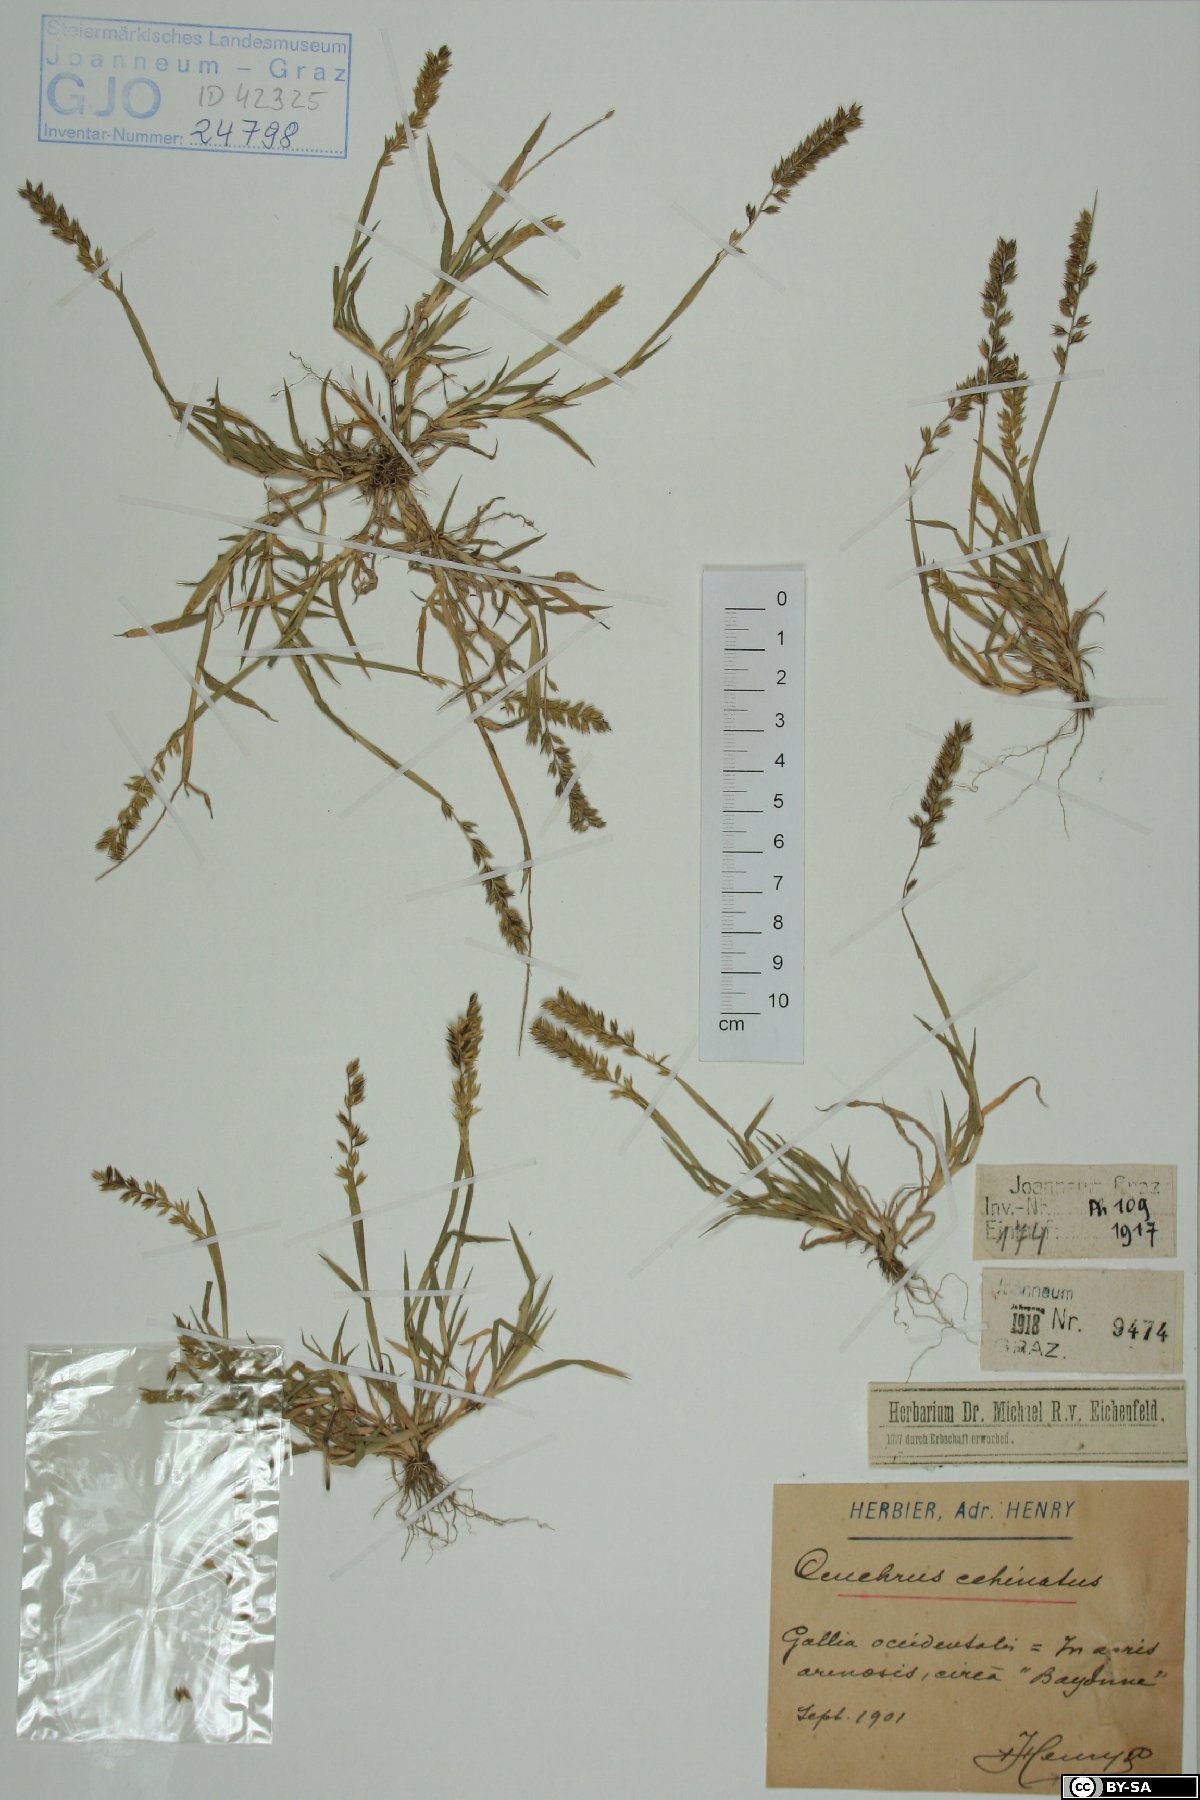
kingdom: Plantae
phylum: Tracheophyta
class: Liliopsida
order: Poales
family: Poaceae
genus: Cenchrus
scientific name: Cenchrus echinatus
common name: Southern sandbur
